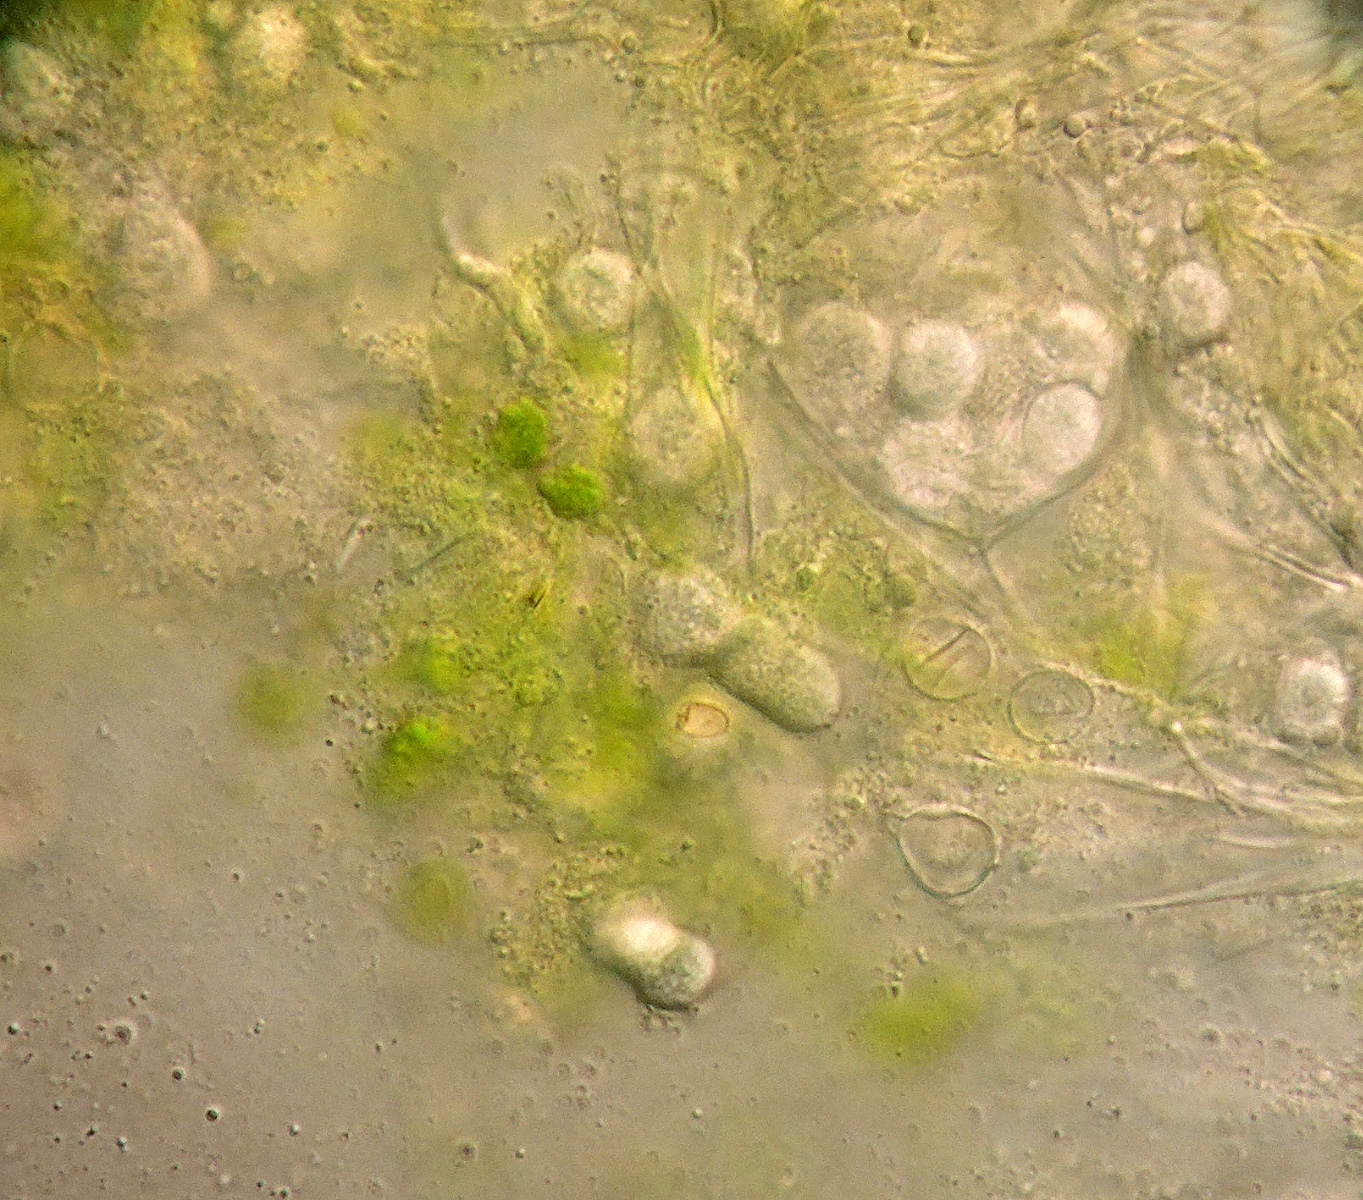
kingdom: Fungi
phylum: Basidiomycota
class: Exobasidiomycetes
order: Entylomatales
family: Entylomataceae
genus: Entyloma
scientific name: Entyloma chrysosplenii
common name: Saxifrage smut
